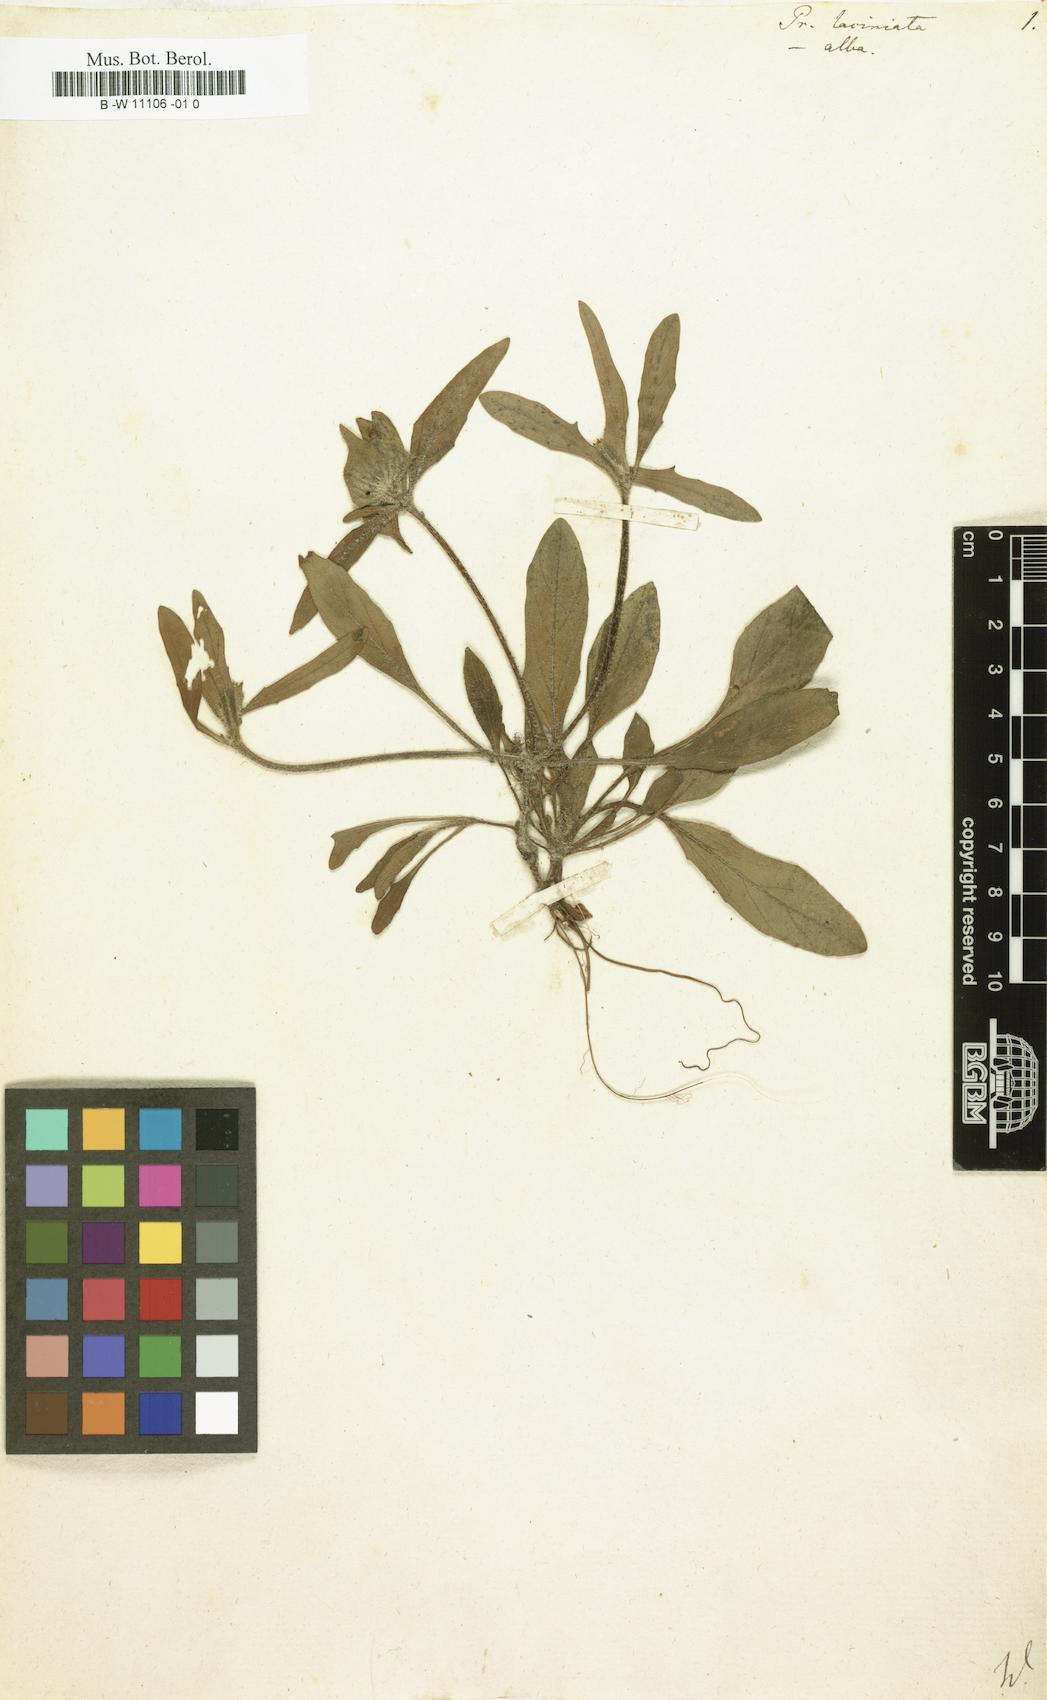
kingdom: Plantae
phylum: Tracheophyta
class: Magnoliopsida
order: Lamiales
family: Lamiaceae
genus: Prunella
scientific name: Prunella laciniata
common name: Cut-leaved selfheal
